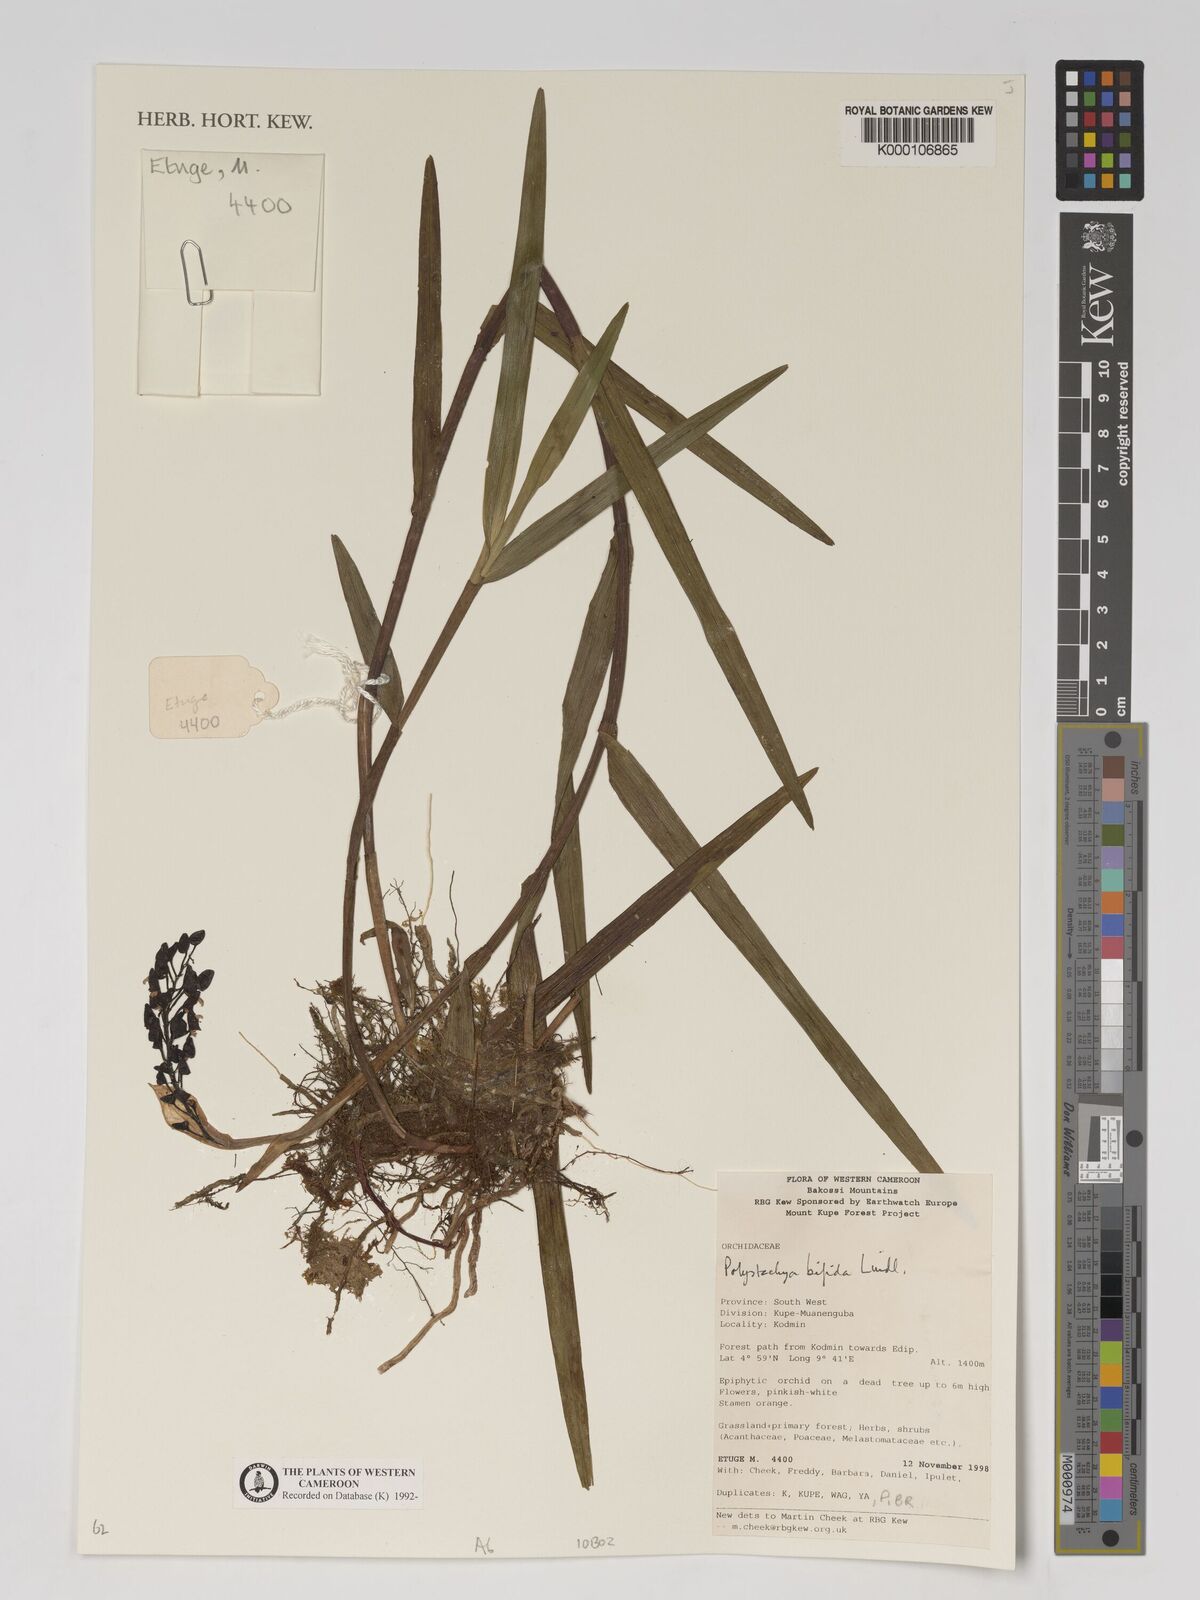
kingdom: Plantae
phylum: Tracheophyta
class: Liliopsida
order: Asparagales
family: Orchidaceae
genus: Polystachya
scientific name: Polystachya bifida
